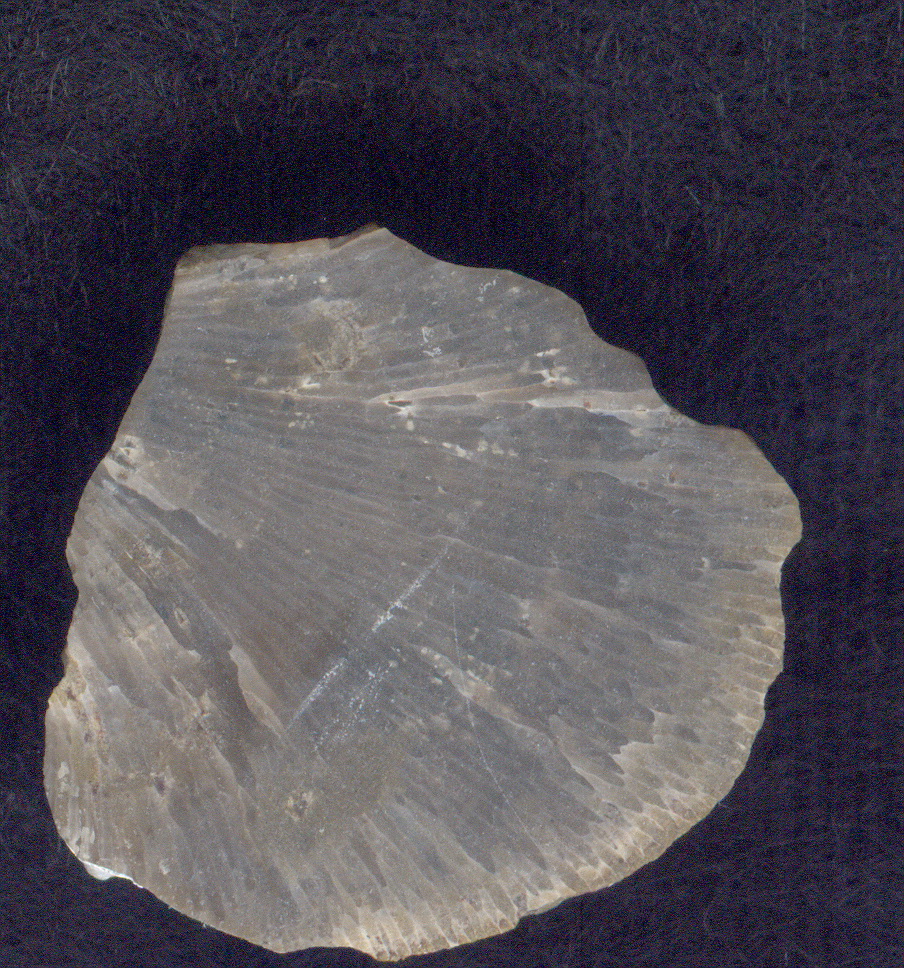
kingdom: Animalia
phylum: Cnidaria
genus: Rhaphidopora
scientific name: Rhaphidopora
